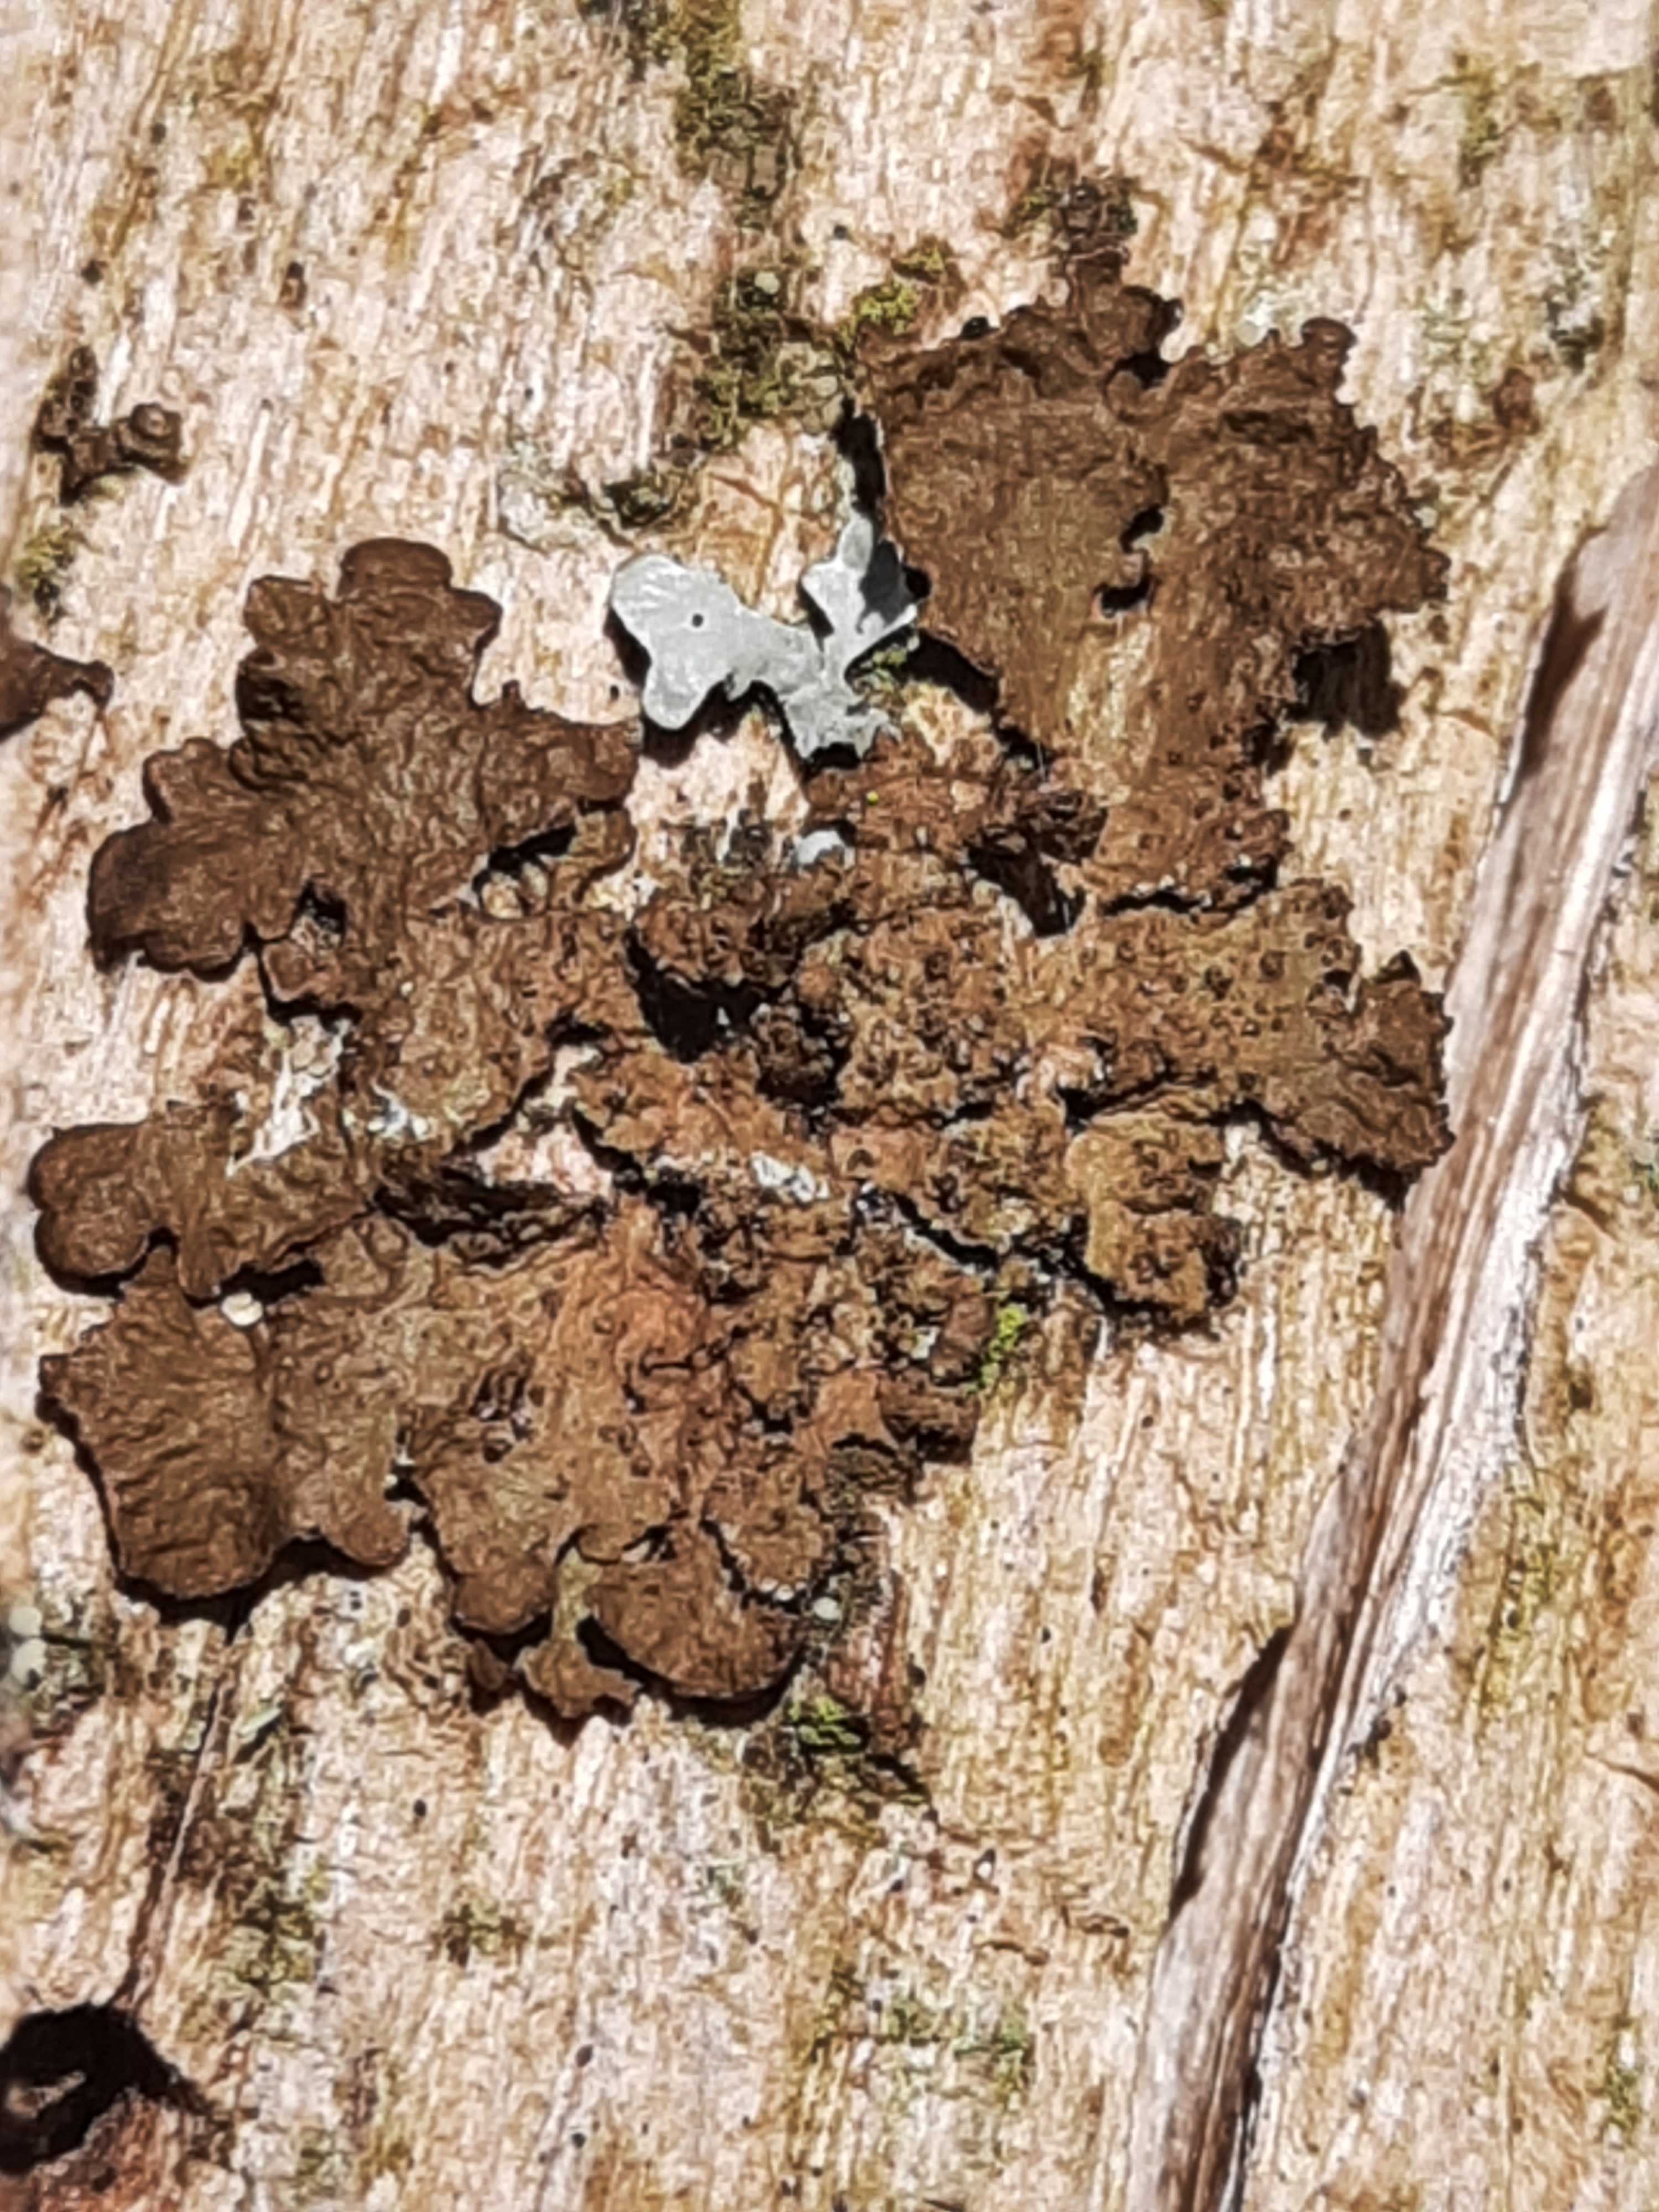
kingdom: Fungi
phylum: Ascomycota
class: Lecanoromycetes
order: Lecanorales
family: Parmeliaceae
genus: Melanelixia
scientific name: Melanelixia subaurifera
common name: guldpudret skållav
